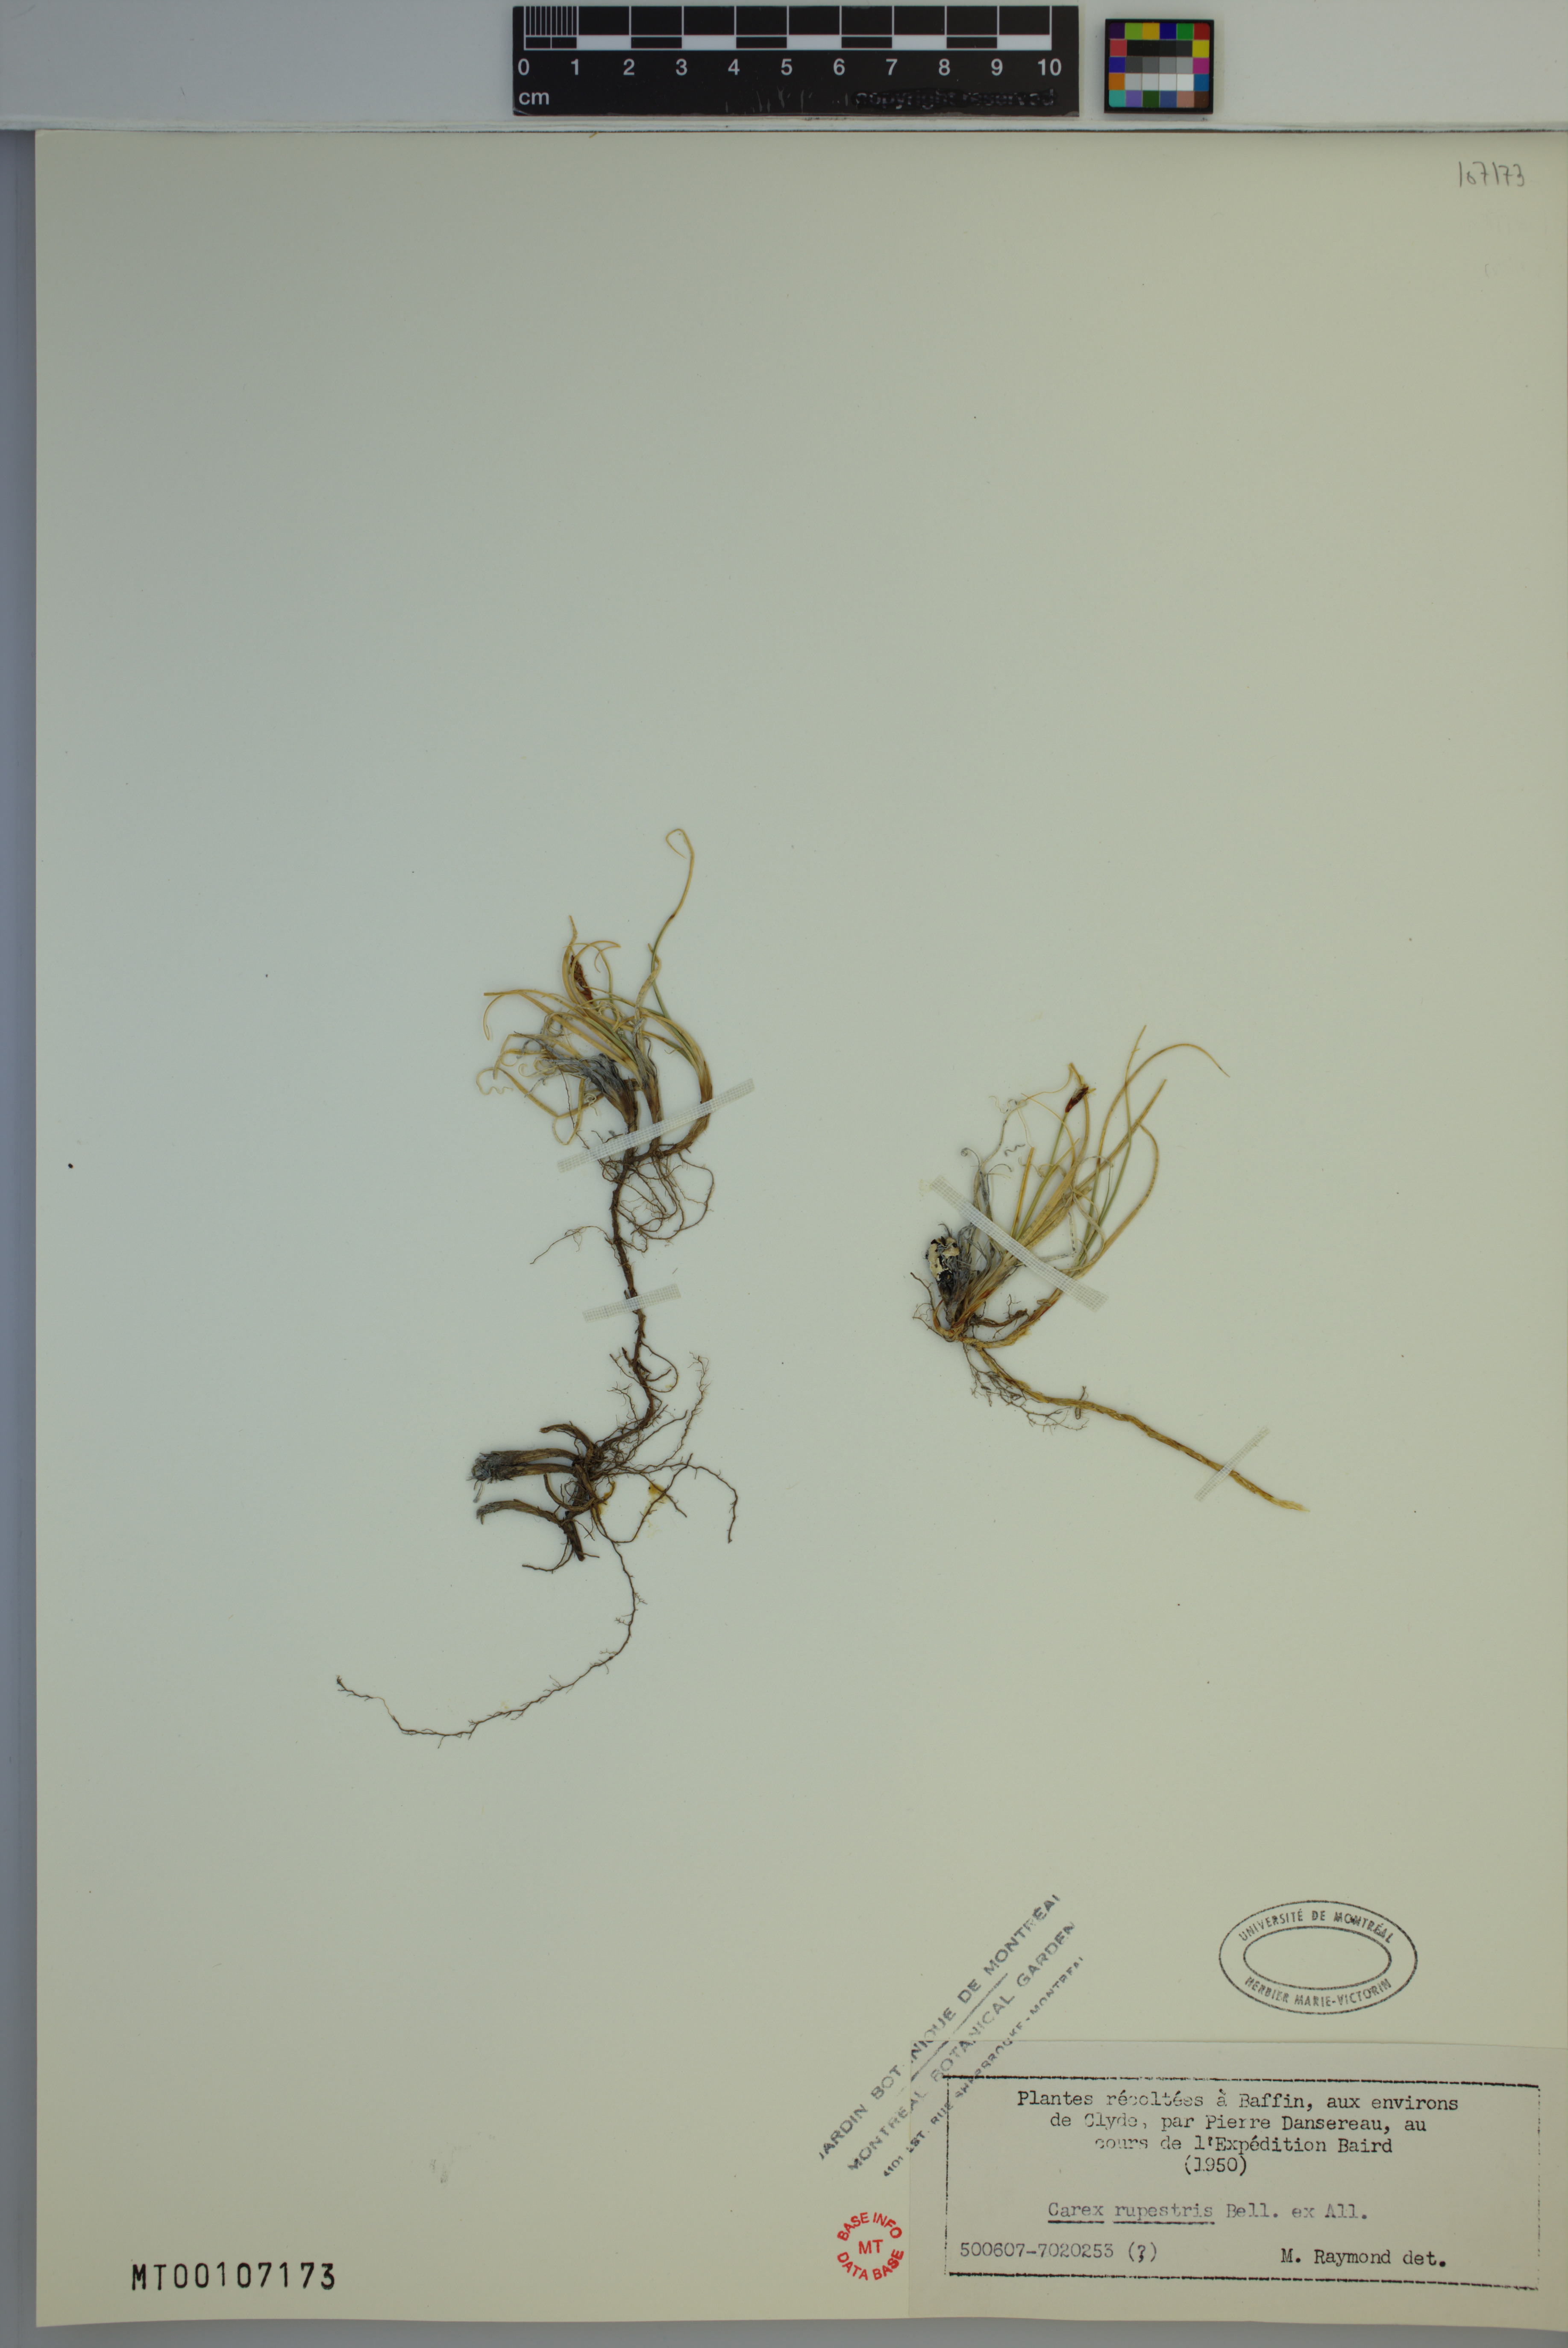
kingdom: Plantae
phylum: Tracheophyta
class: Liliopsida
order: Poales
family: Cyperaceae
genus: Carex
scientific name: Carex rupestris
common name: Rock sedge
